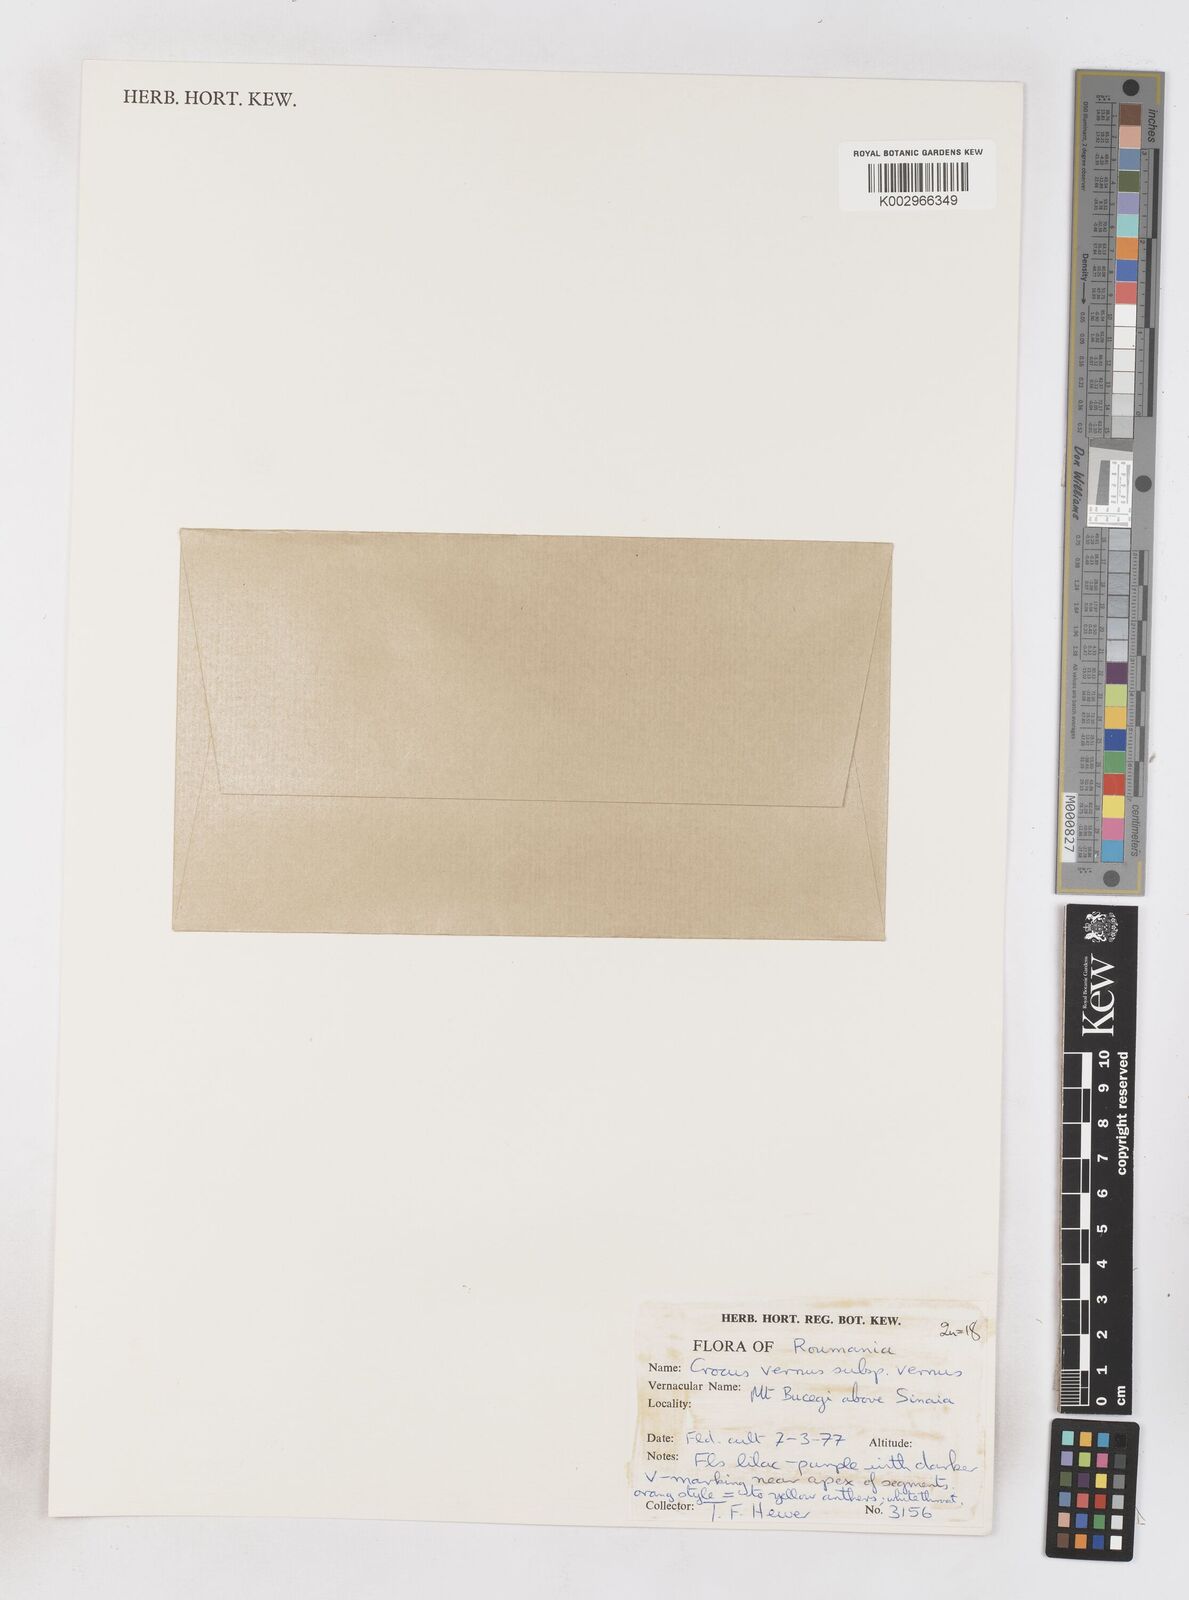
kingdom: Plantae
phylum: Tracheophyta
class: Liliopsida
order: Asparagales
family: Iridaceae
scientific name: Iridaceae
